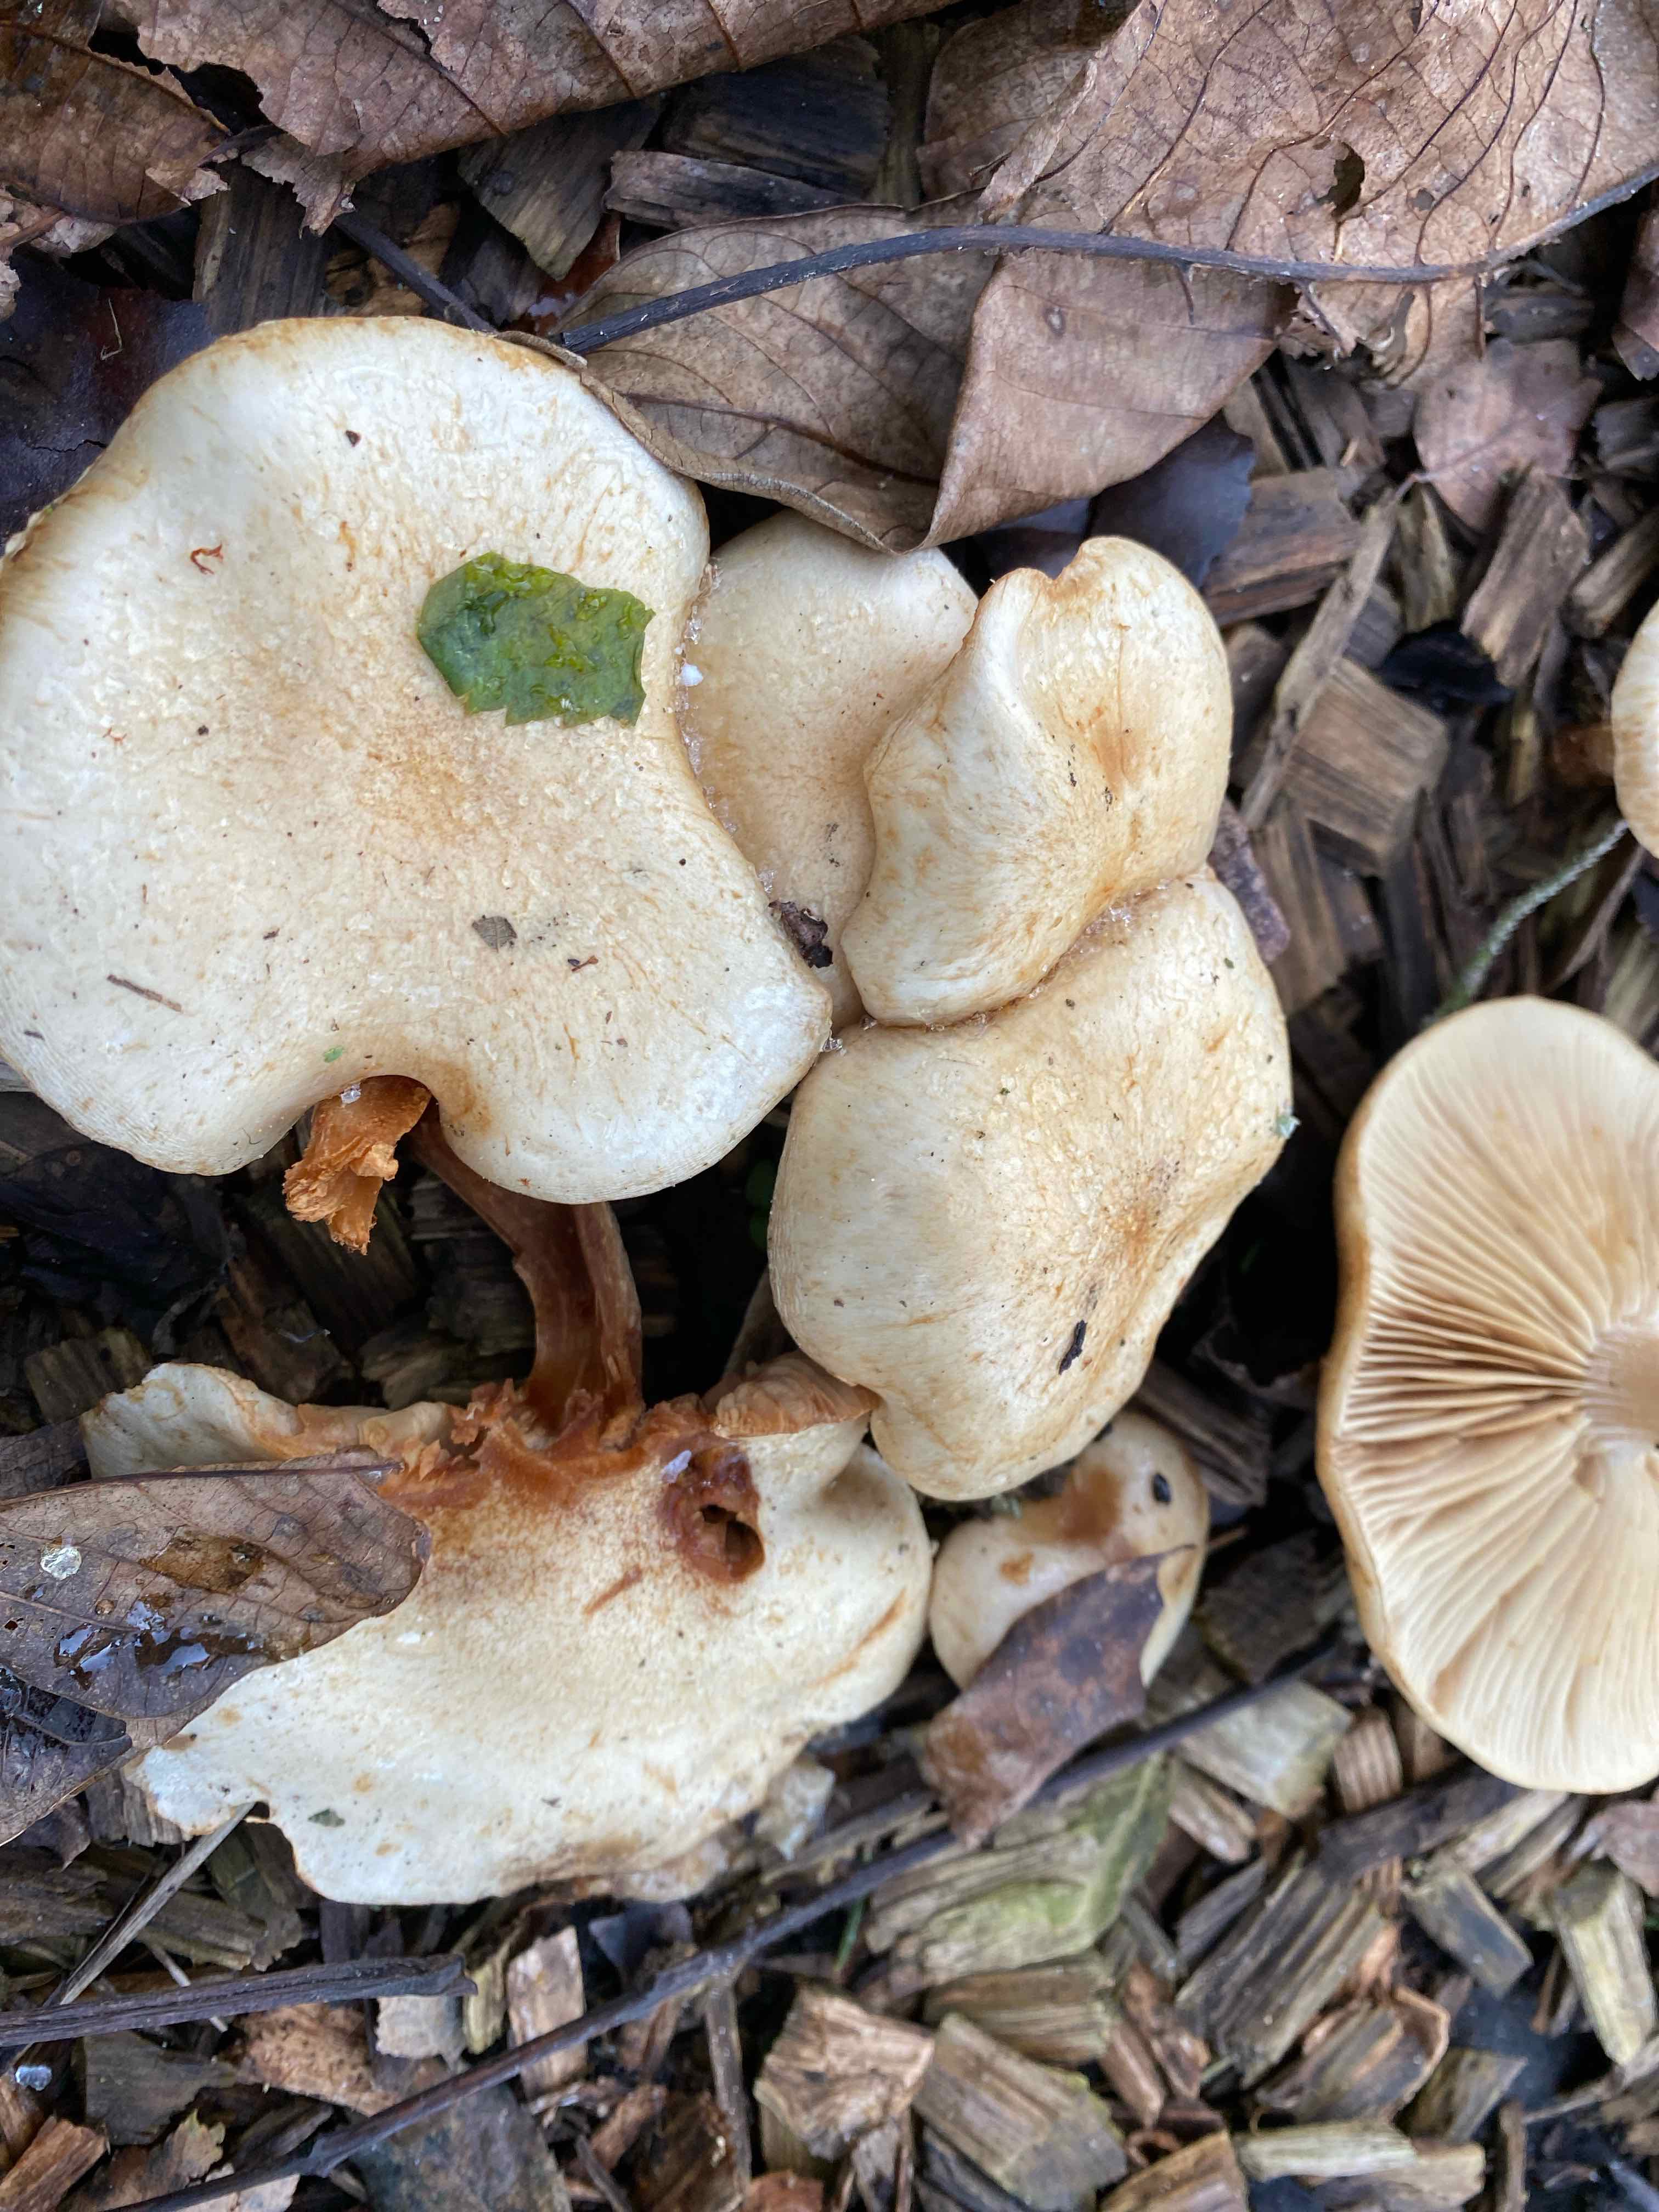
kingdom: Fungi
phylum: Basidiomycota
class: Agaricomycetes
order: Agaricales
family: Strophariaceae
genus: Pholiota
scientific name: Pholiota gummosa
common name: grøngul skælhat
